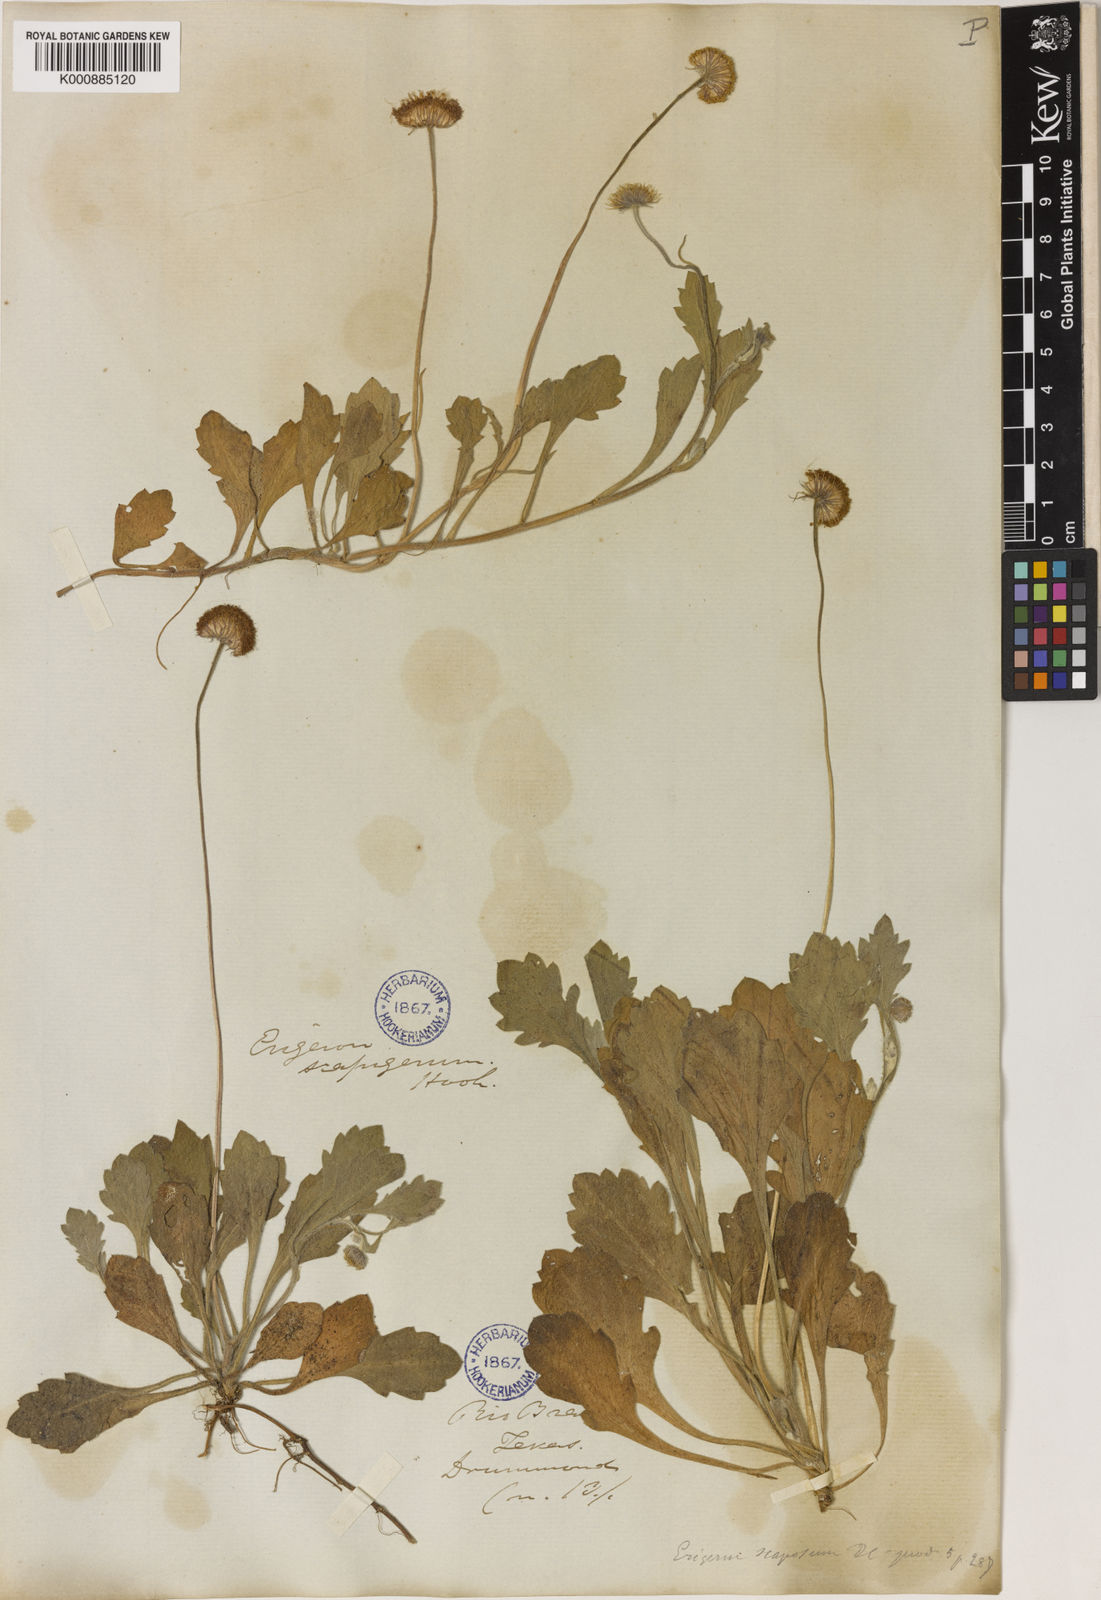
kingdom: Plantae
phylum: Tracheophyta
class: Magnoliopsida
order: Asterales
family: Asteraceae
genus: Oritrophium
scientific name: Oritrophium repens
